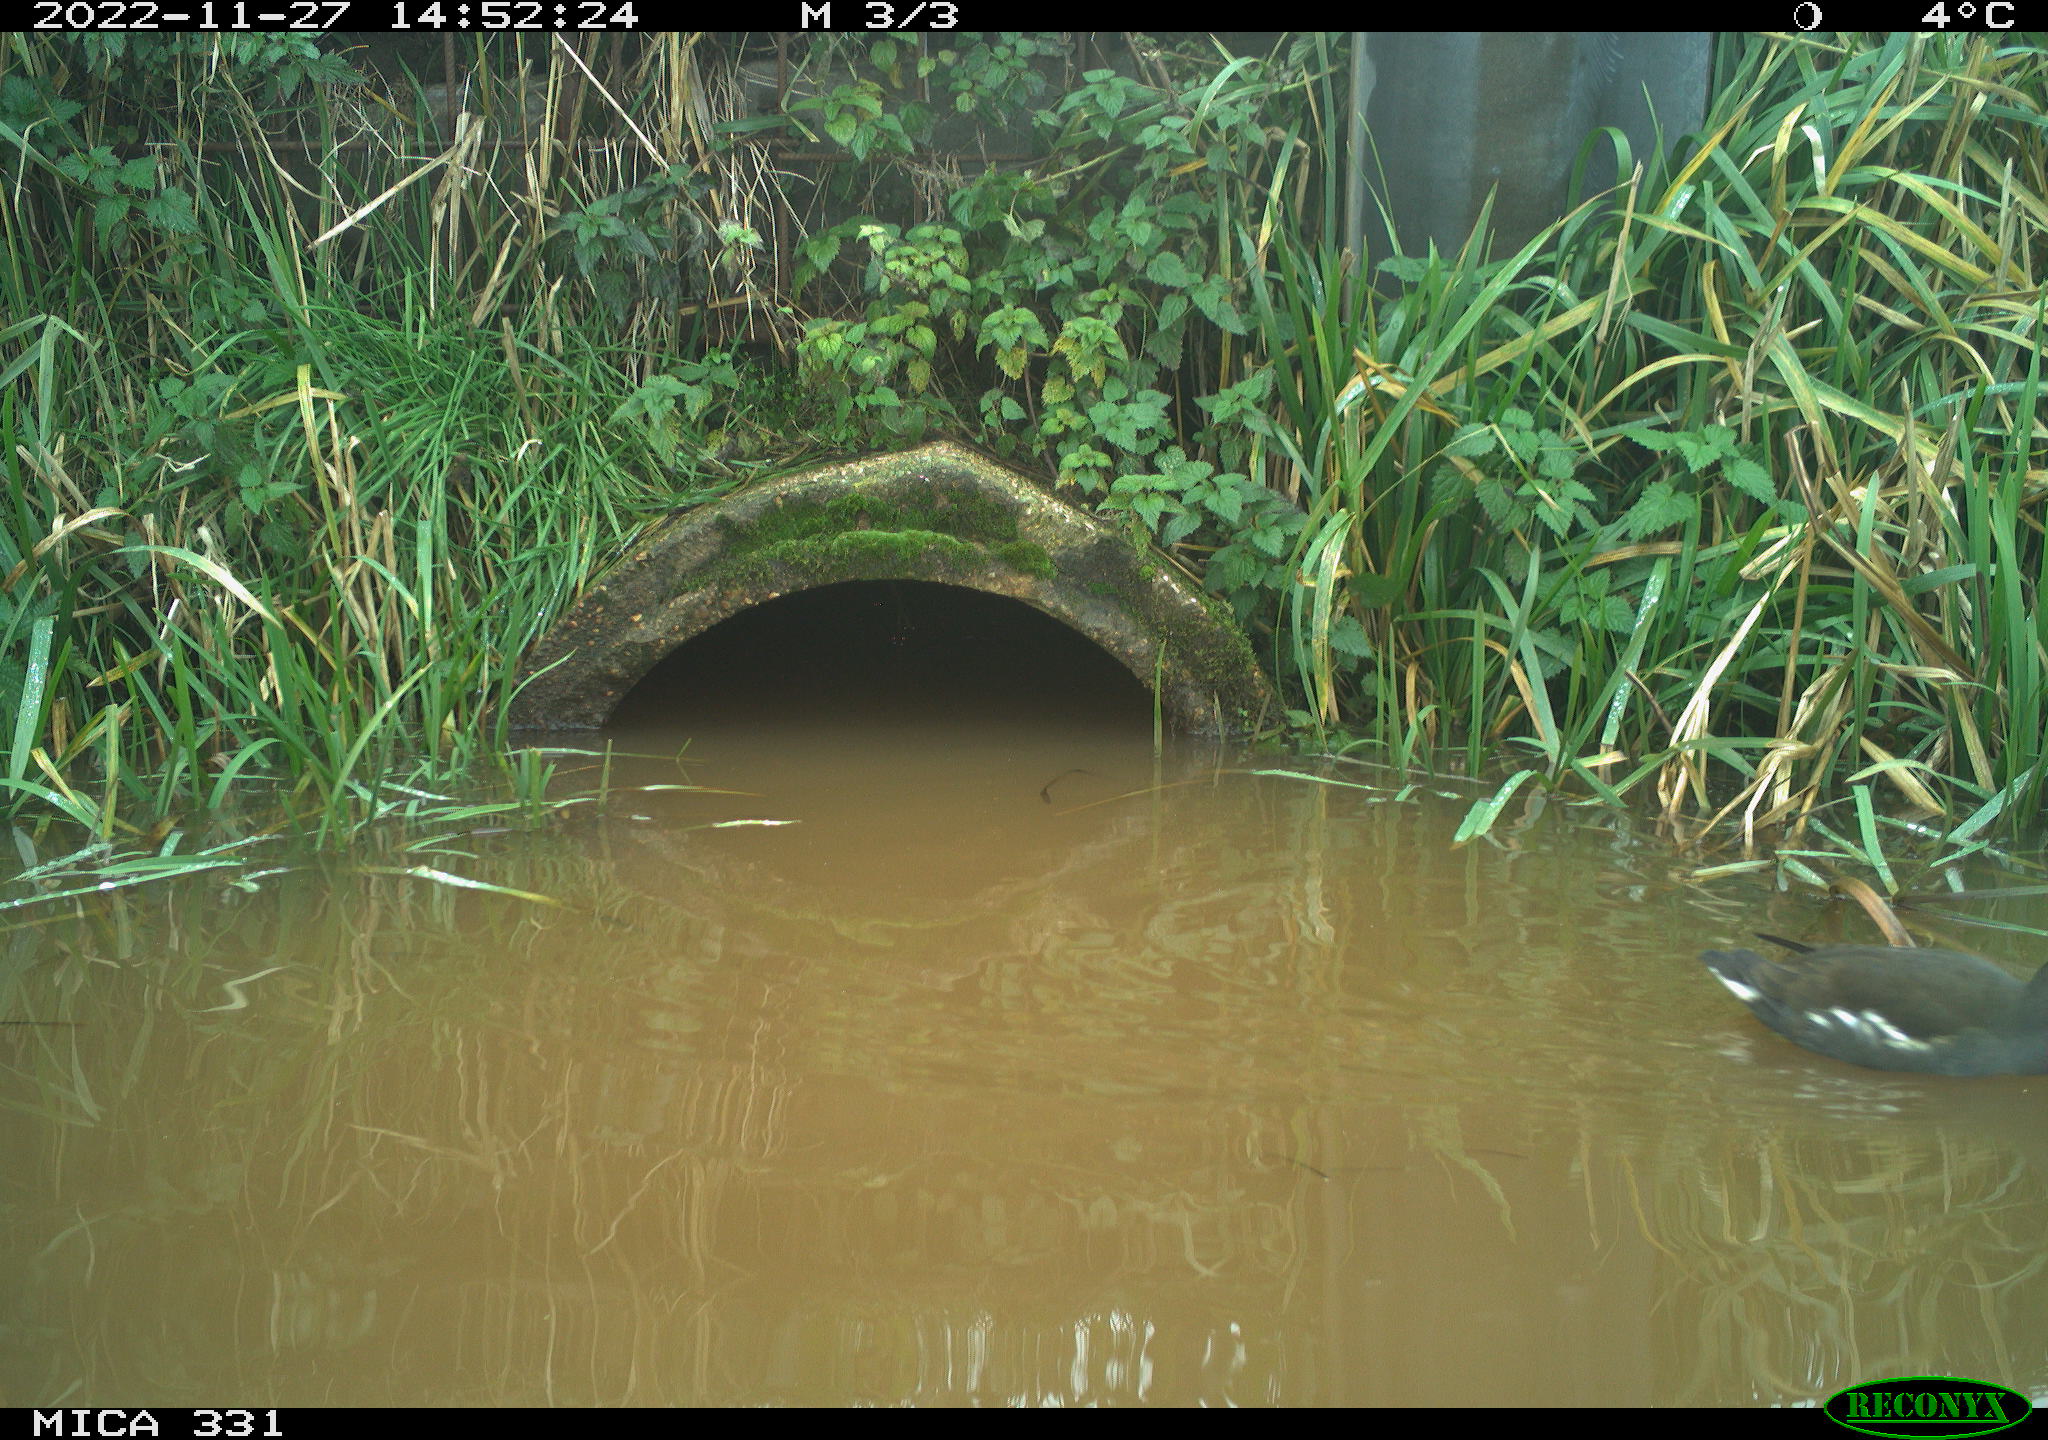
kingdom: Animalia
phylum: Chordata
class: Aves
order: Gruiformes
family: Rallidae
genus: Gallinula
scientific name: Gallinula chloropus
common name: Common moorhen
